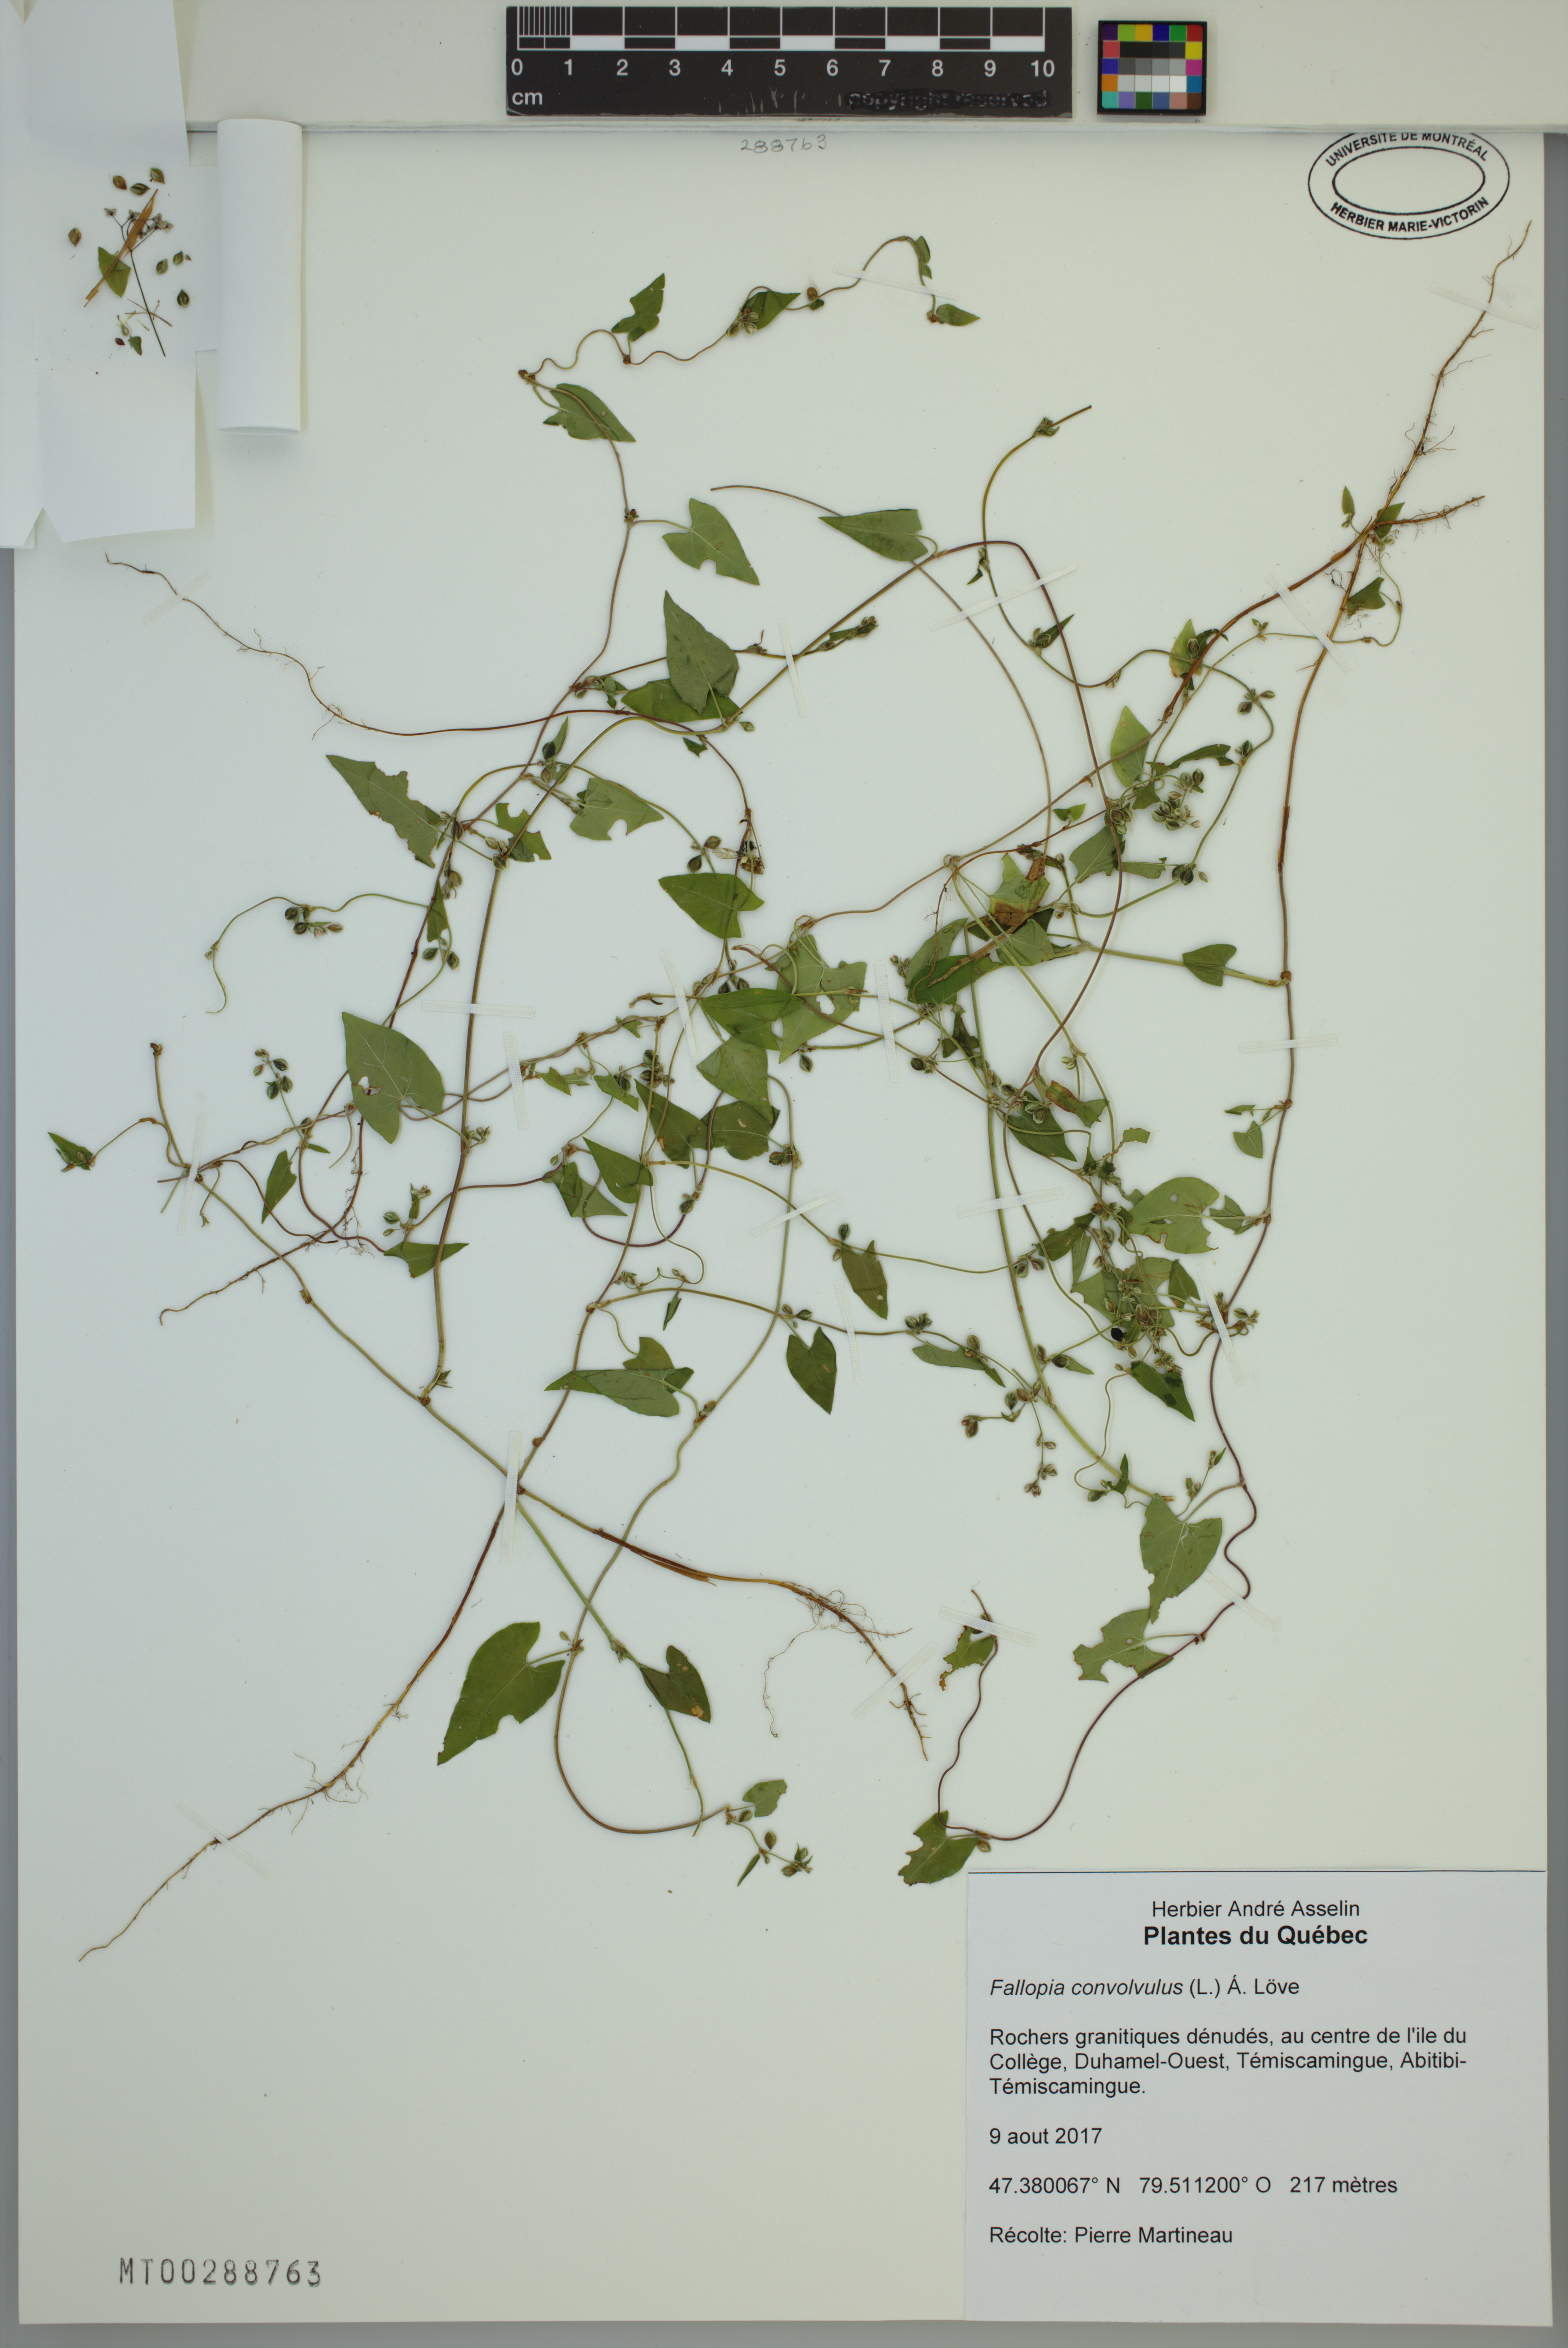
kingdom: Plantae
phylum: Tracheophyta
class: Magnoliopsida
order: Caryophyllales
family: Polygonaceae
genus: Fallopia
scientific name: Fallopia convolvulus
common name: Black bindweed
